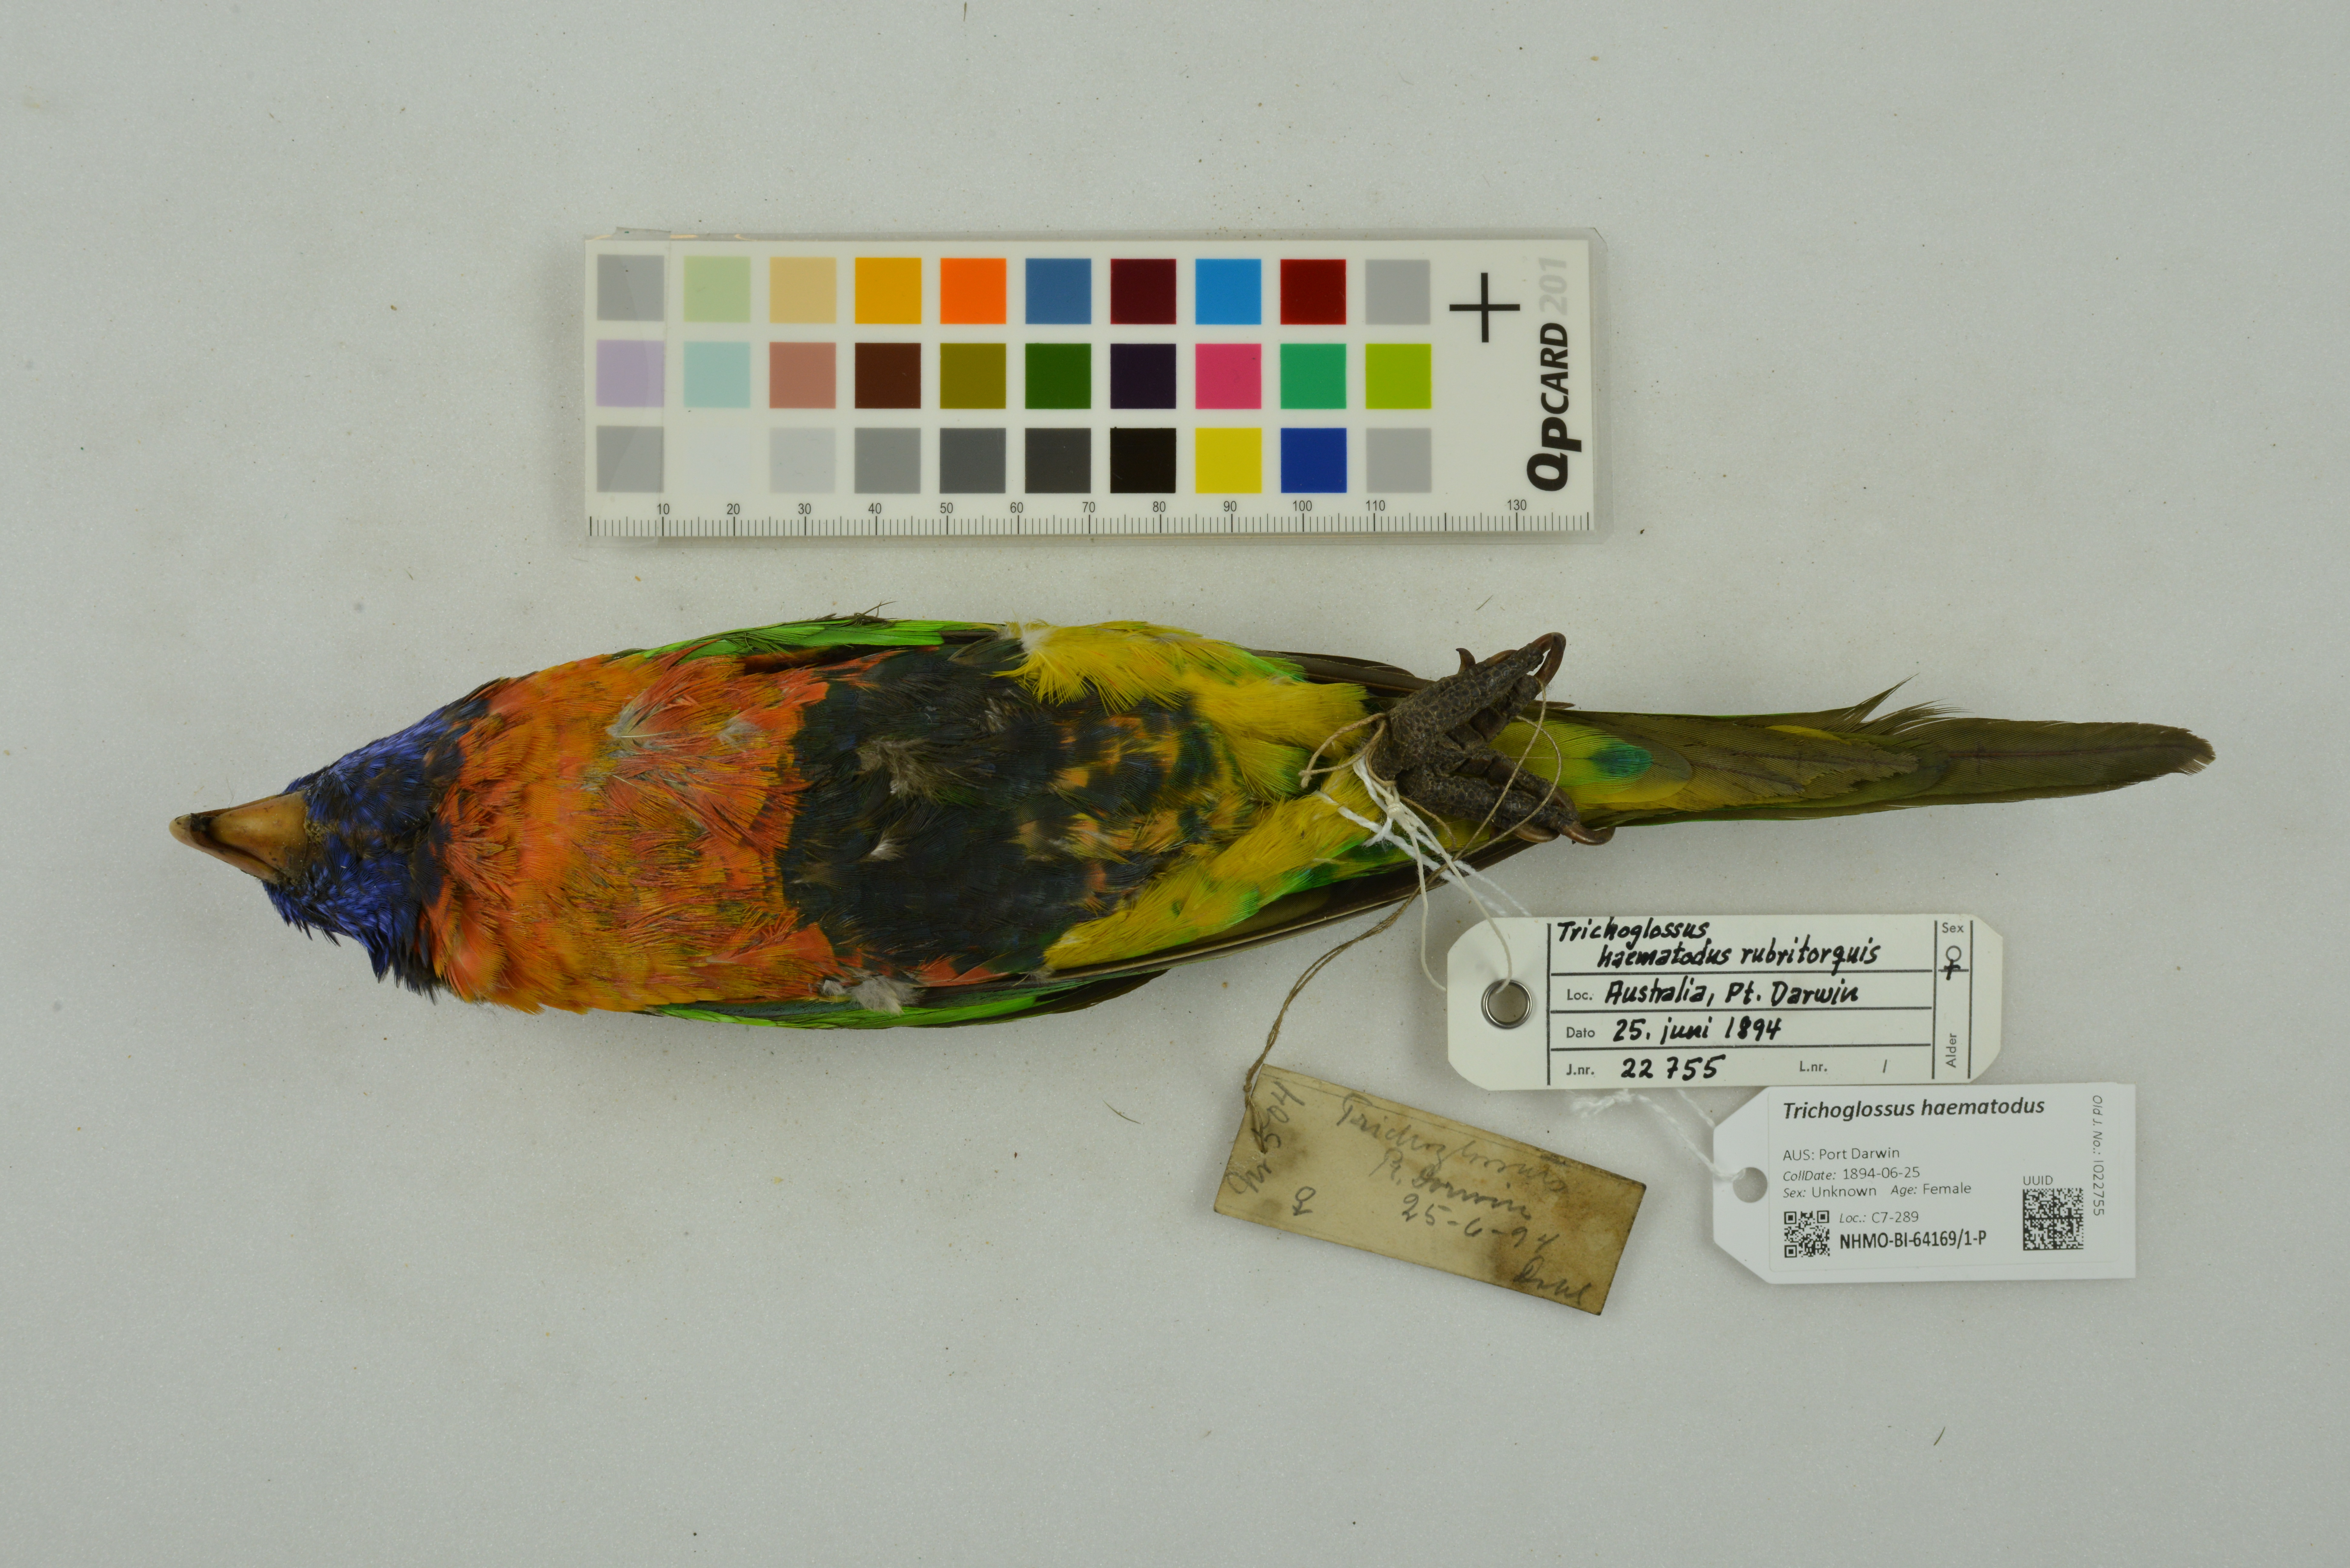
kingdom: Animalia
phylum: Chordata
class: Aves
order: Psittaciformes
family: Psittacidae
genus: Trichoglossus
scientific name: Trichoglossus haematodus
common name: Coconut lorikeet
